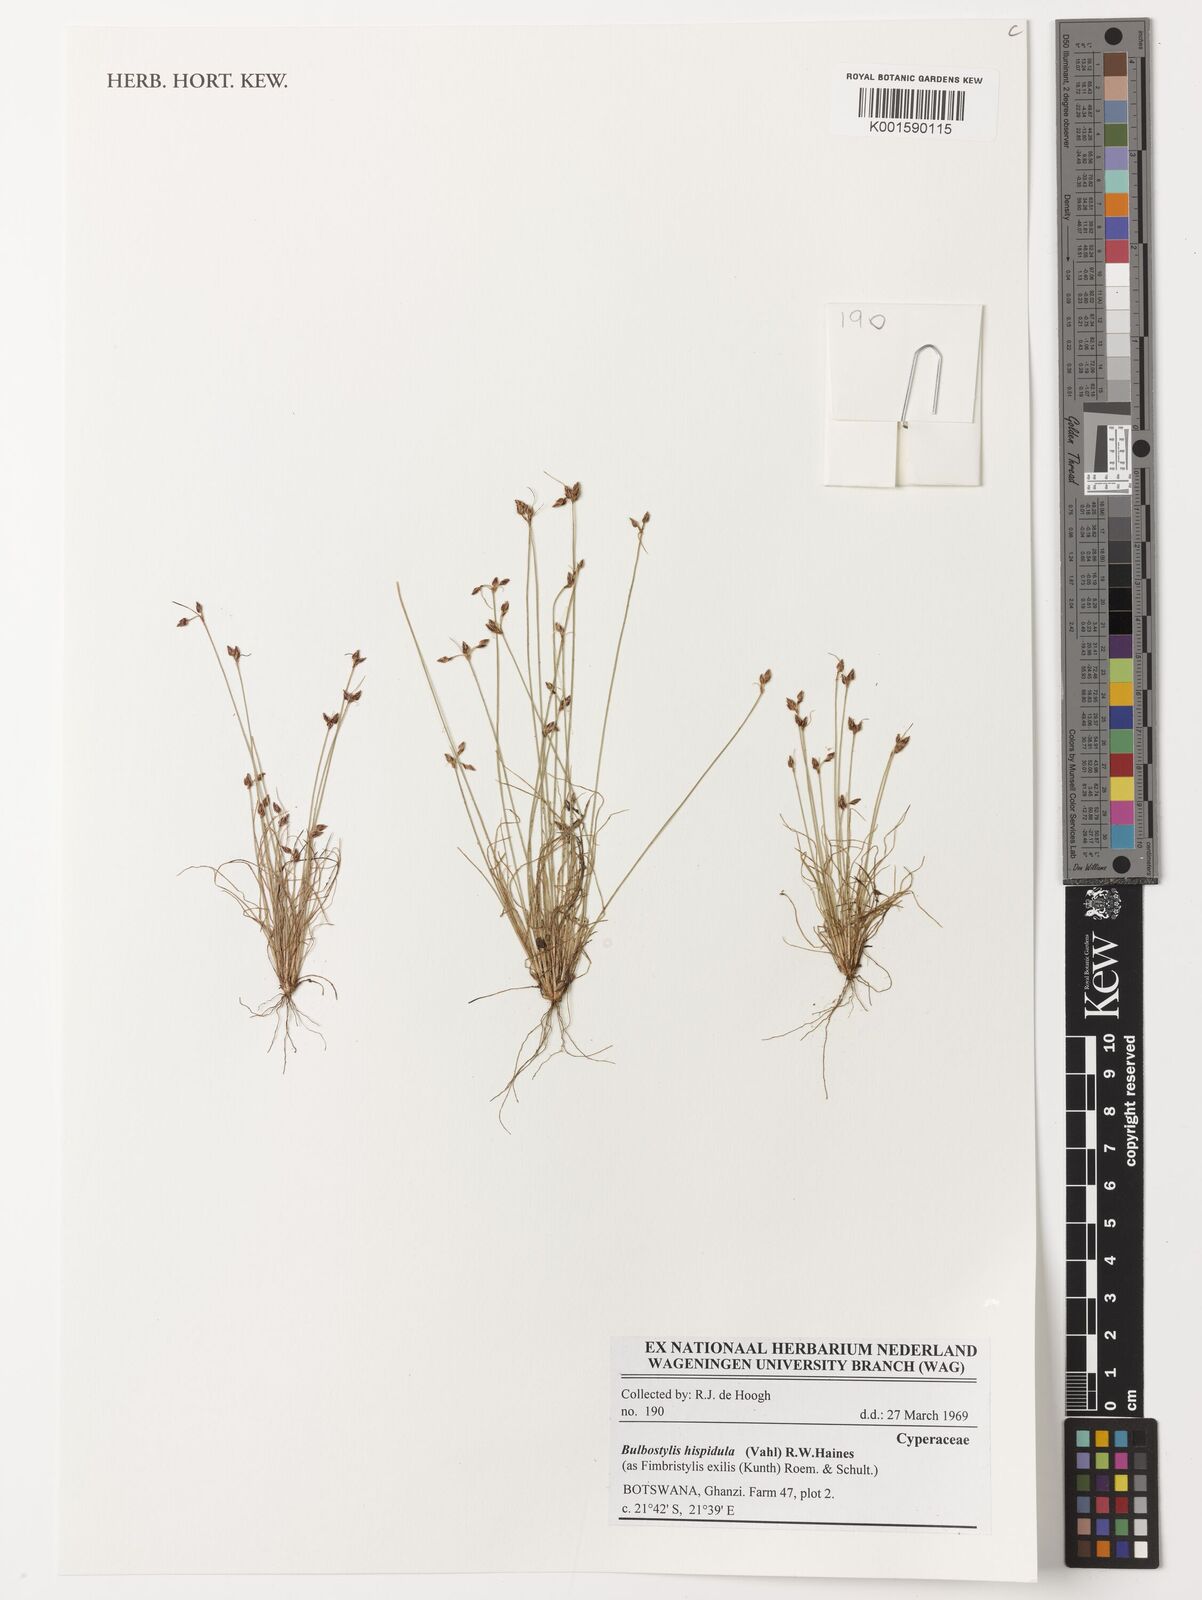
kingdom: Plantae
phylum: Tracheophyta
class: Liliopsida
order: Poales
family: Cyperaceae
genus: Bulbostylis
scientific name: Bulbostylis hispidula
